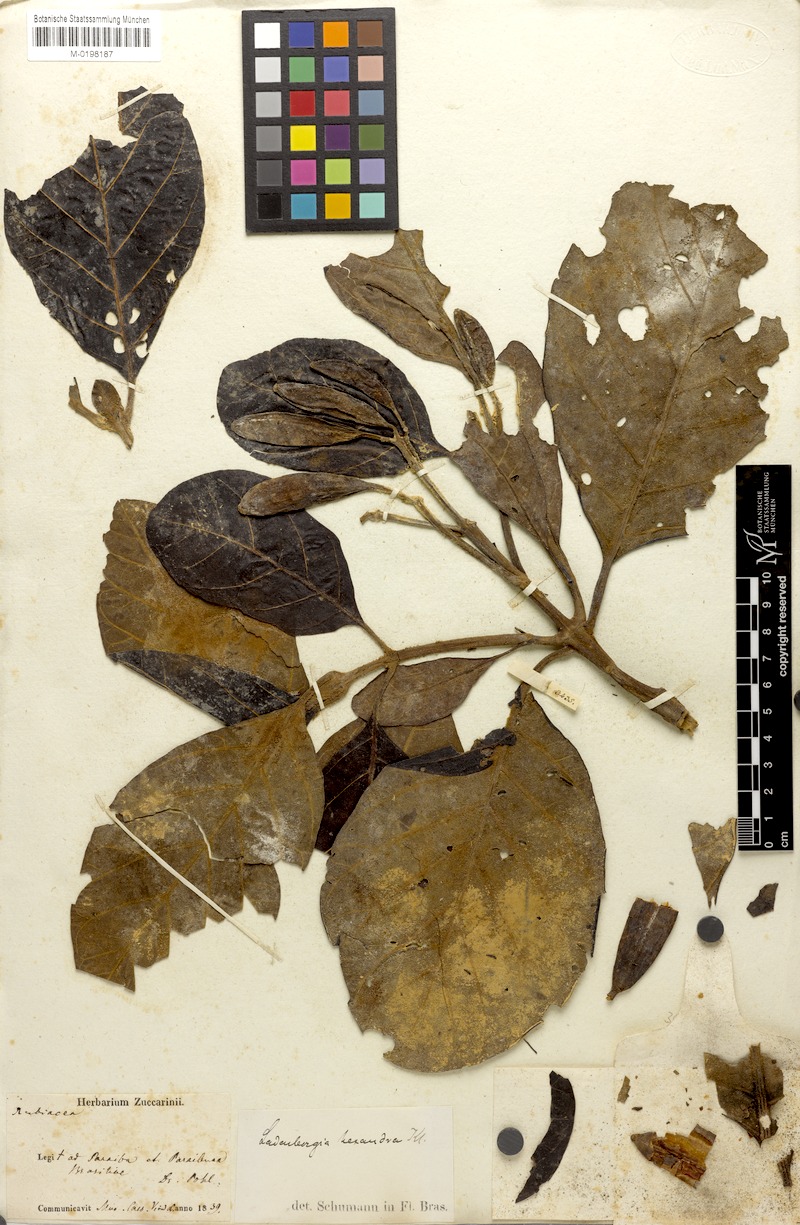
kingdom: Plantae
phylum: Tracheophyta
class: Magnoliopsida
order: Gentianales
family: Rubiaceae
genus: Ladenbergia
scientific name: Ladenbergia hexandra
